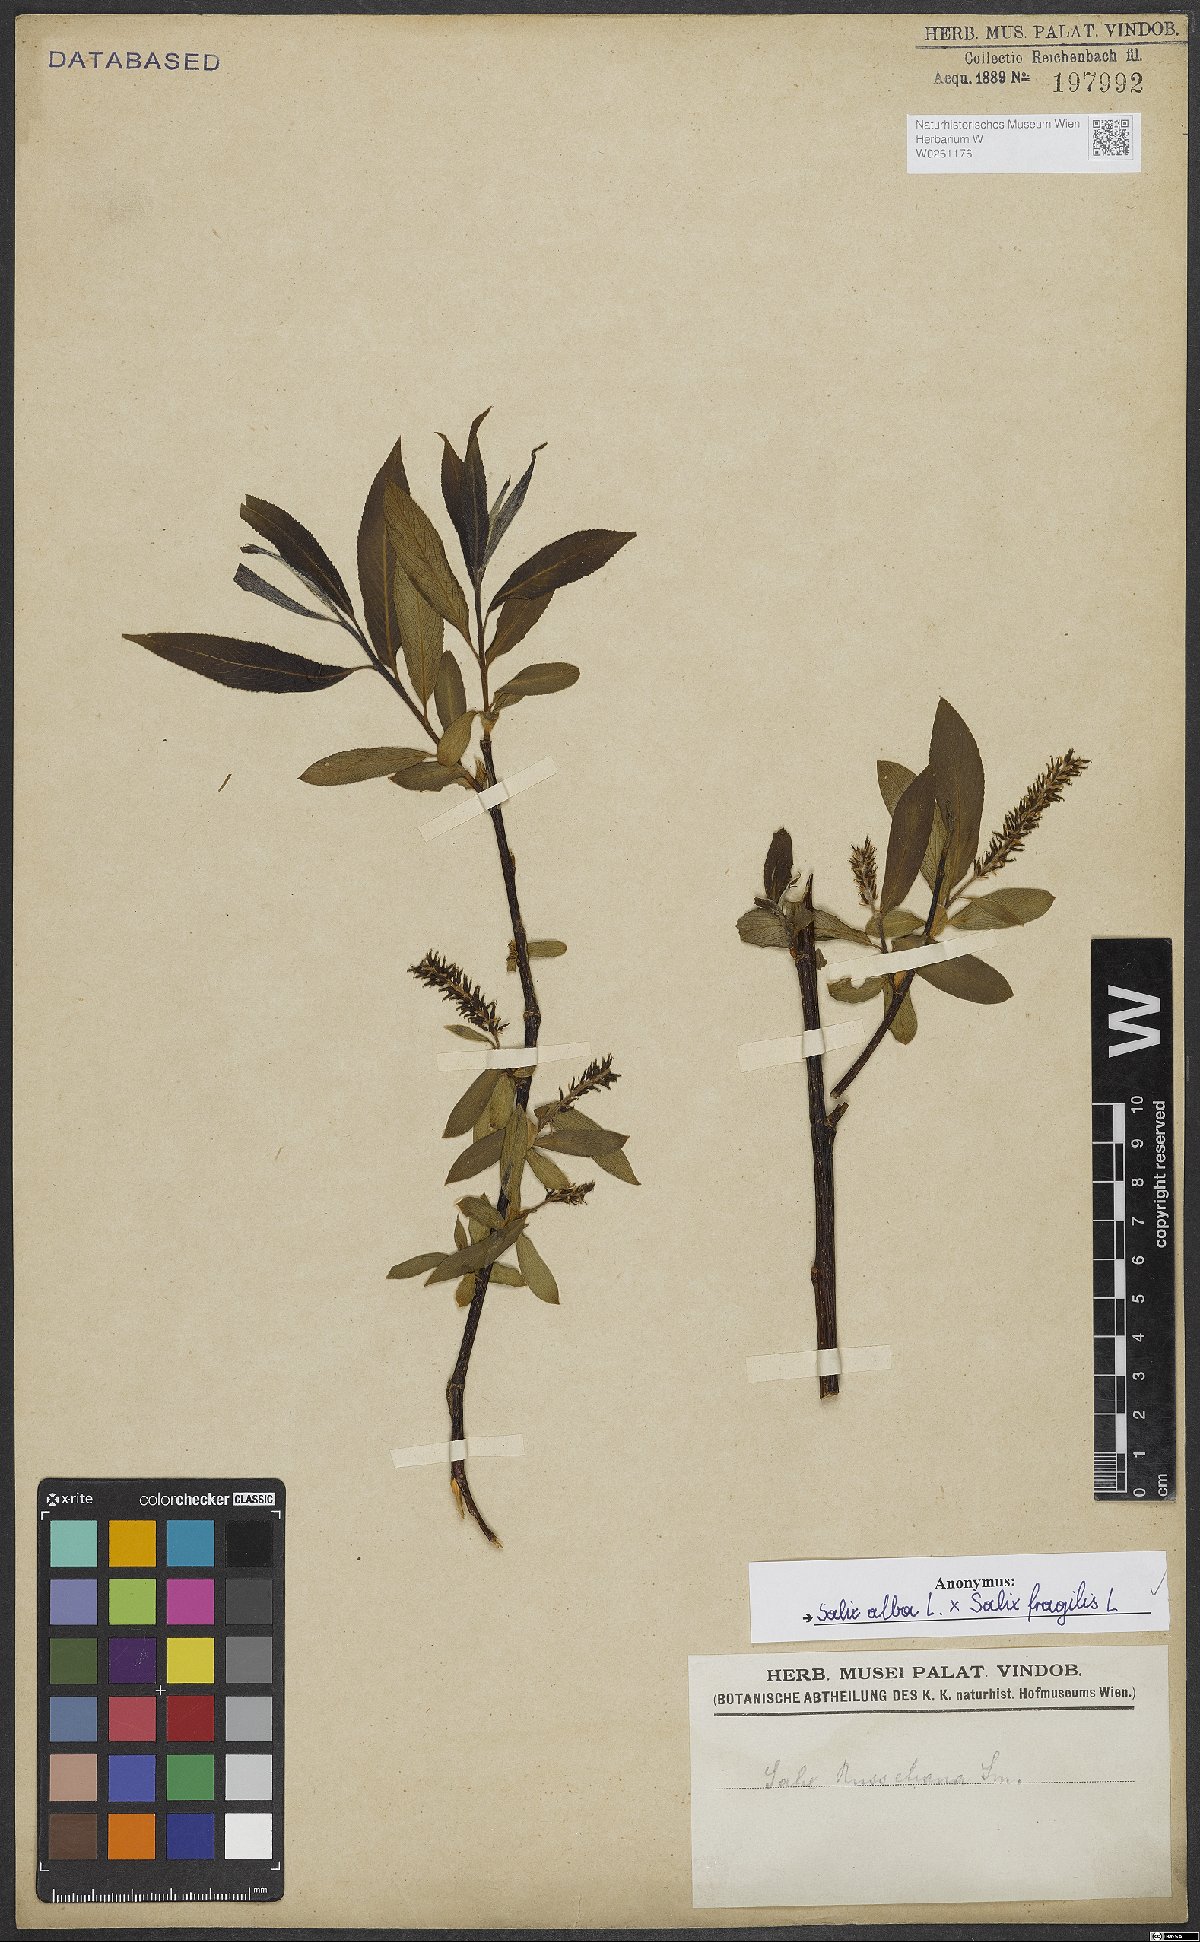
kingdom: Plantae
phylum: Tracheophyta
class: Magnoliopsida
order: Malpighiales
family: Salicaceae
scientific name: Salicaceae
